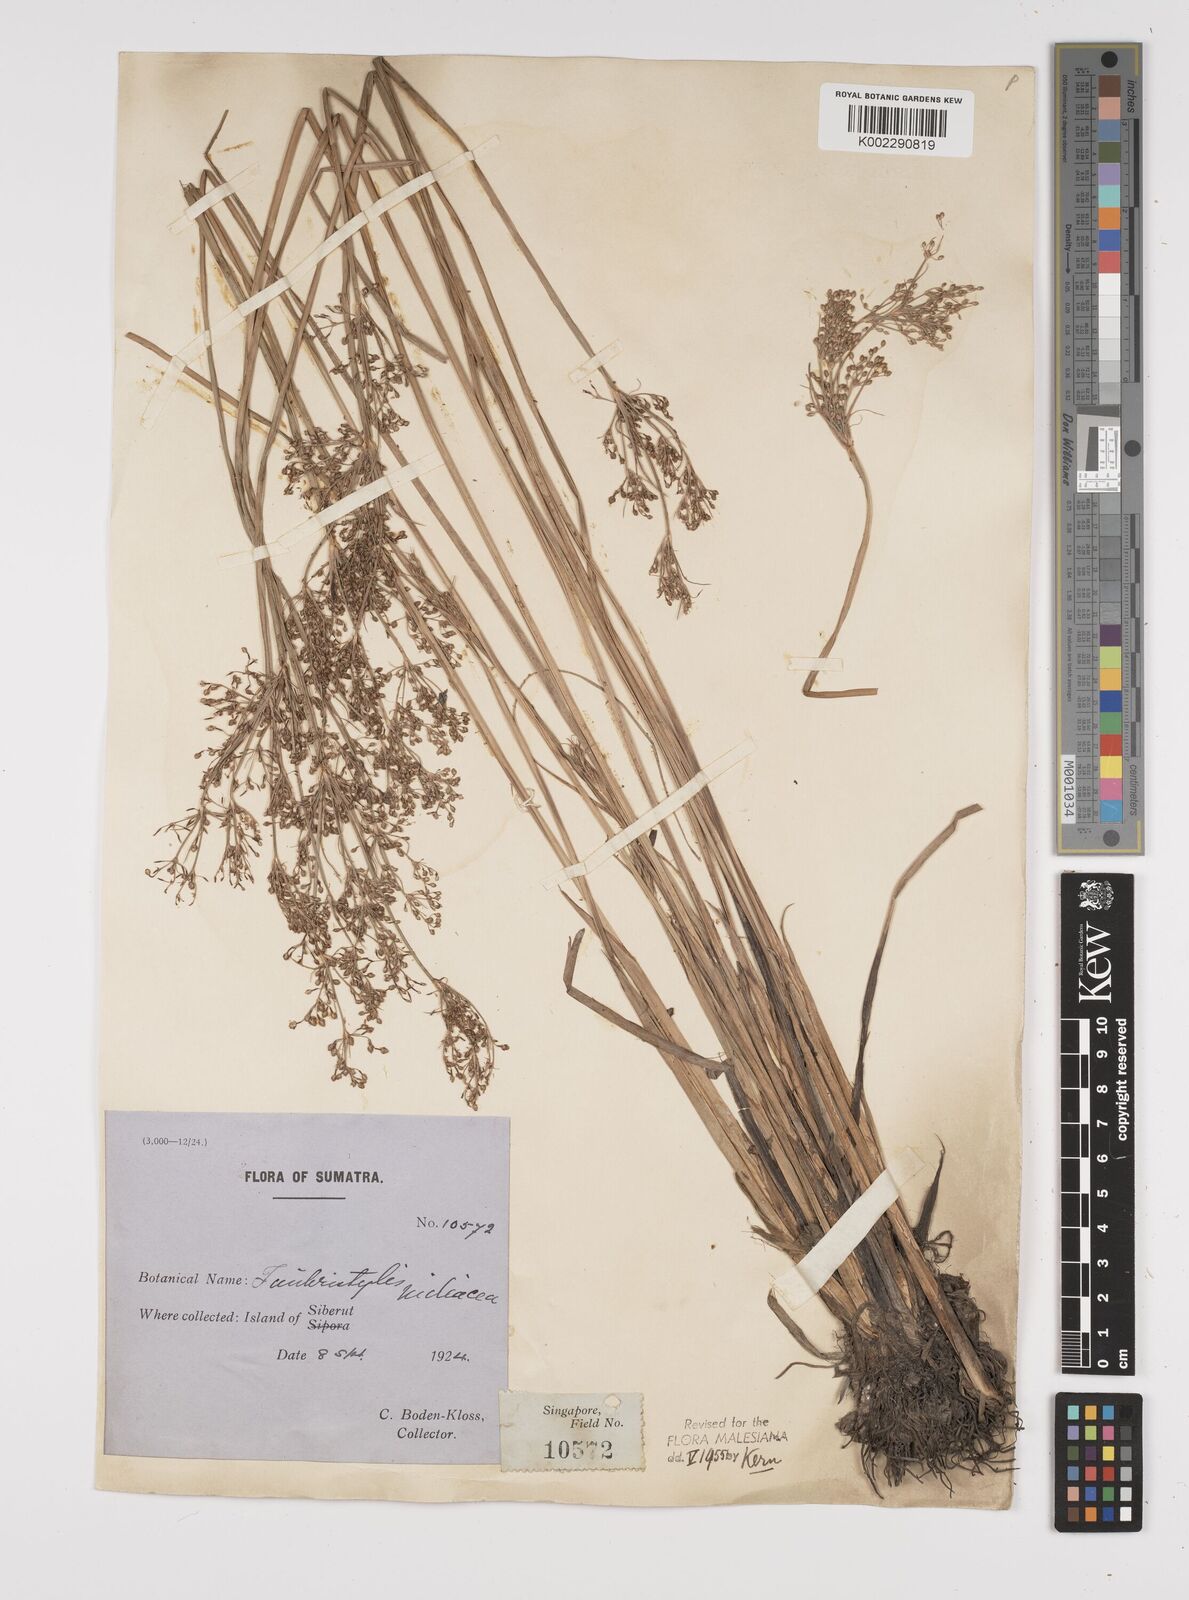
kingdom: Plantae
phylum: Tracheophyta
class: Liliopsida
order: Poales
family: Cyperaceae
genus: Fimbristylis
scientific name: Fimbristylis littoralis
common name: Fimbry
